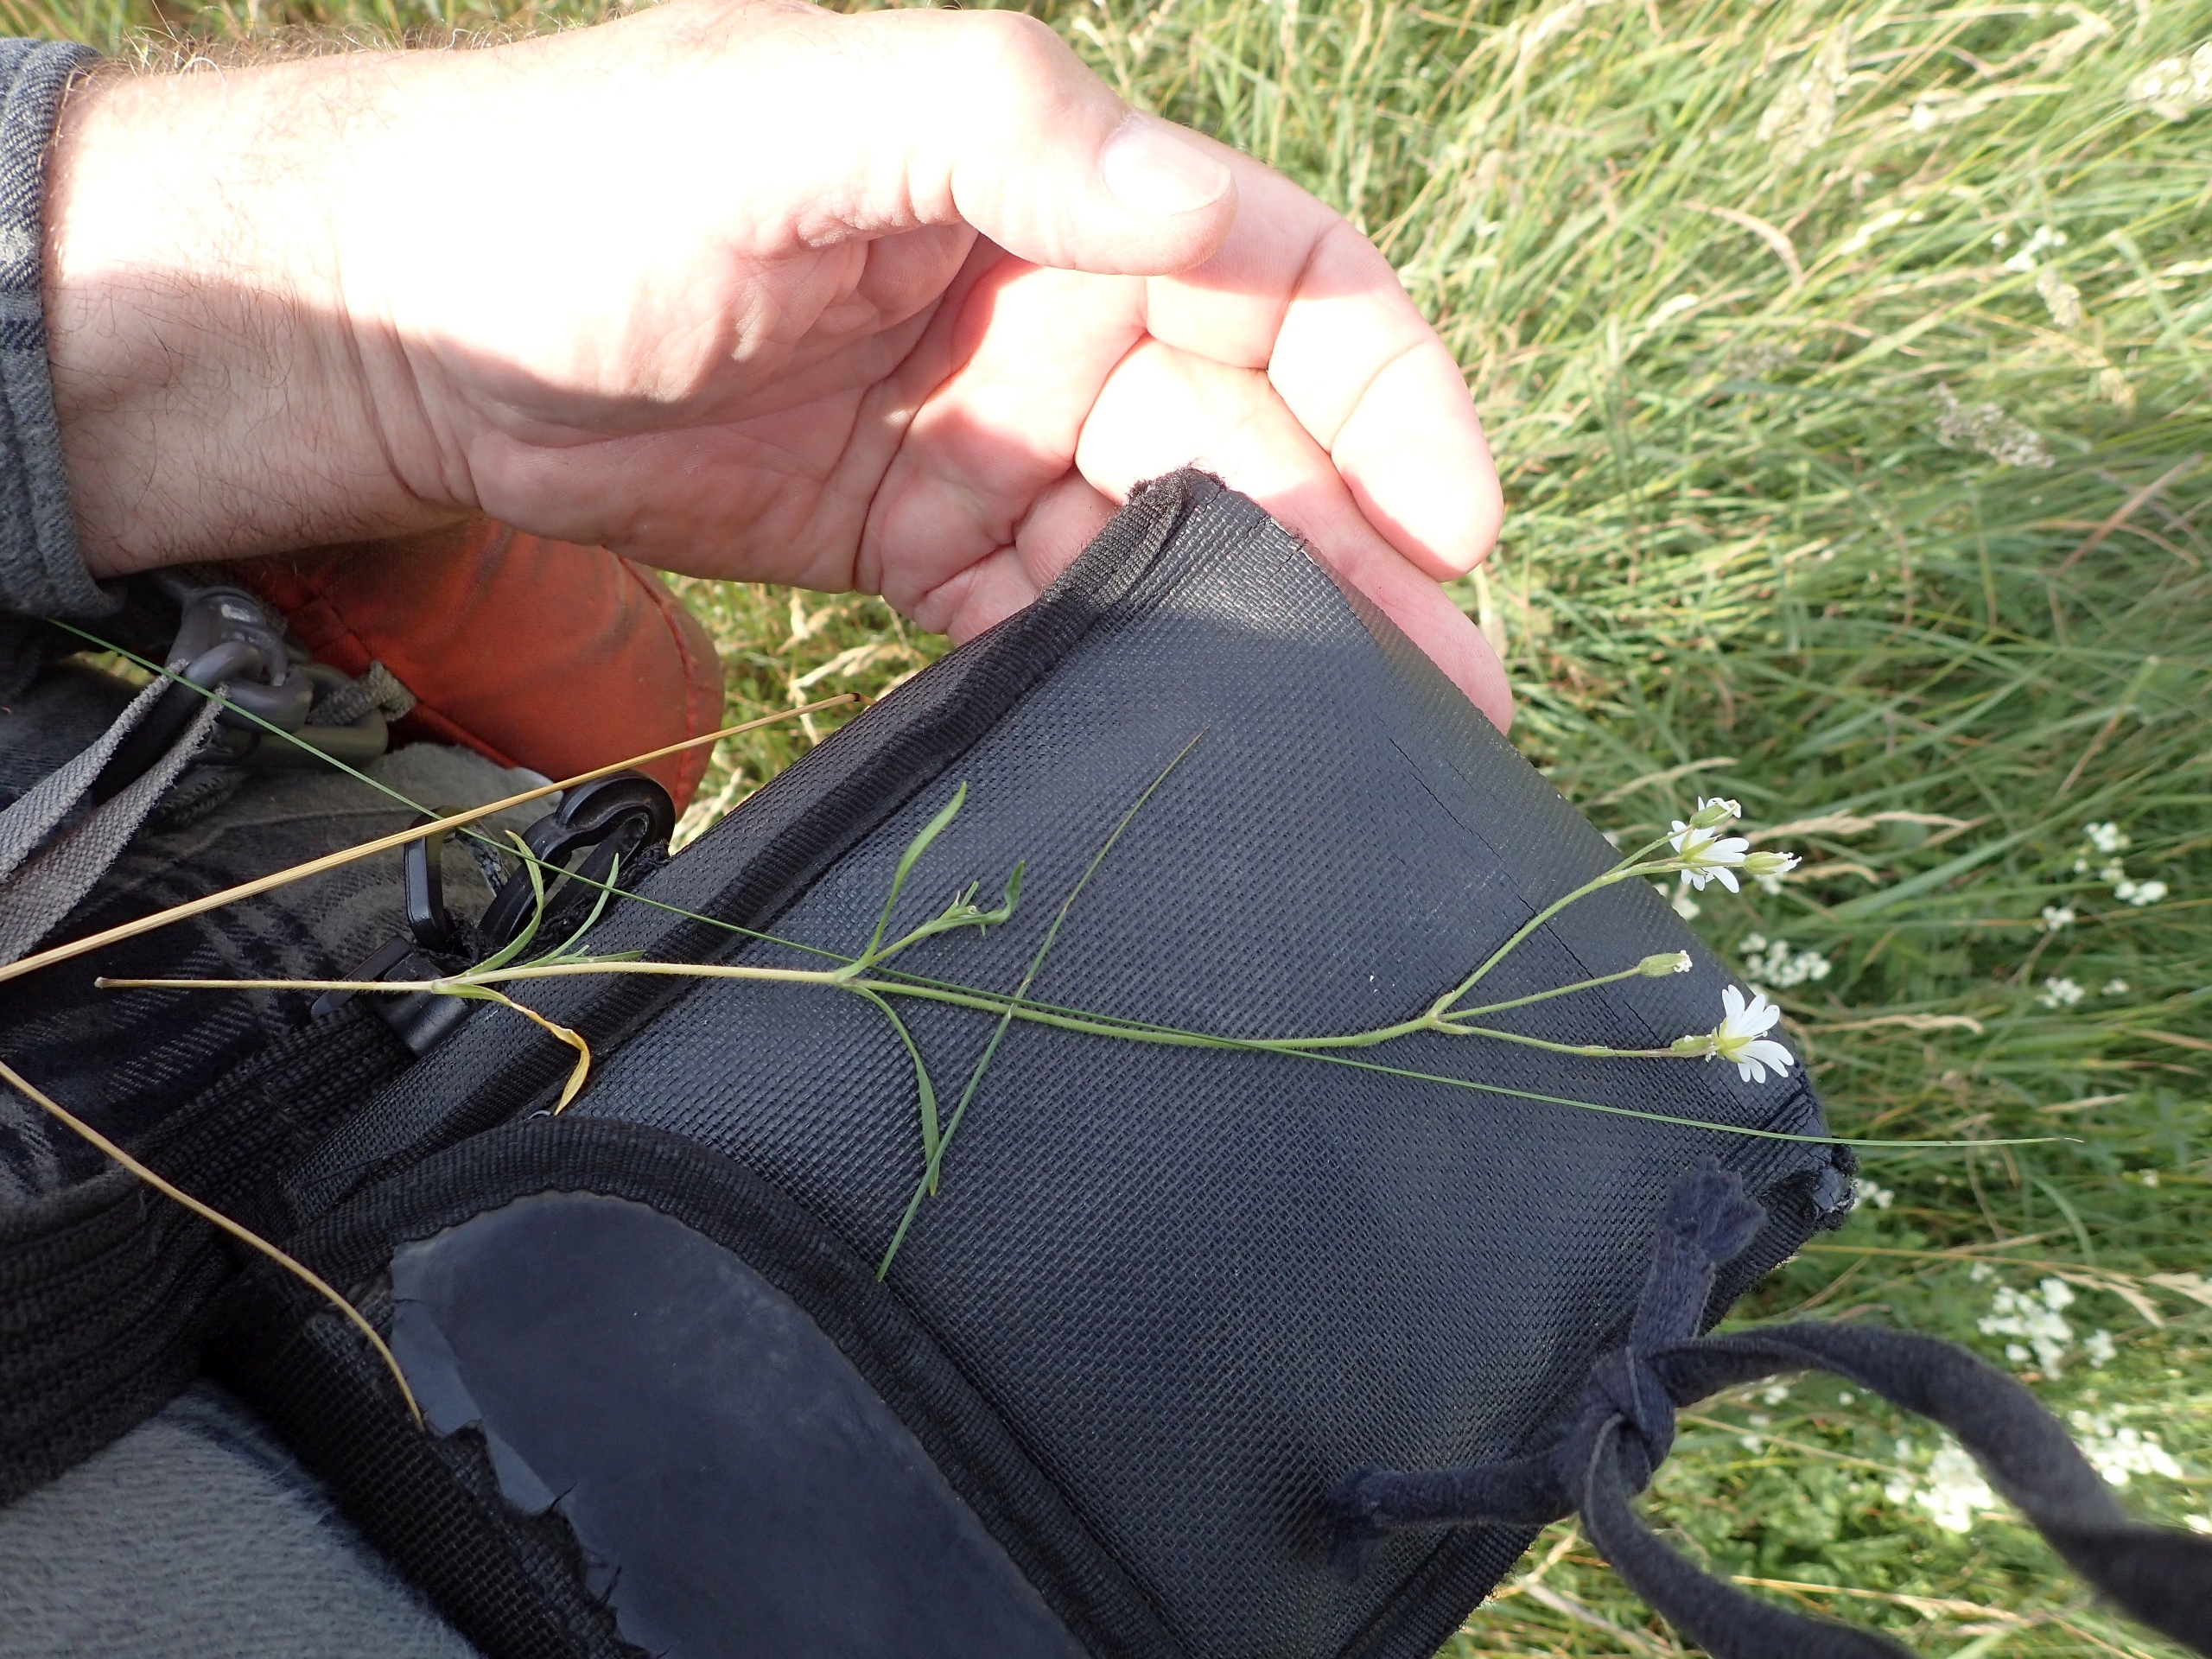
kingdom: Plantae
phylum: Tracheophyta
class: Magnoliopsida
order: Caryophyllales
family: Caryophyllaceae
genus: Cerastium
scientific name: Cerastium arvense
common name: Storblomstret hønsetarm
